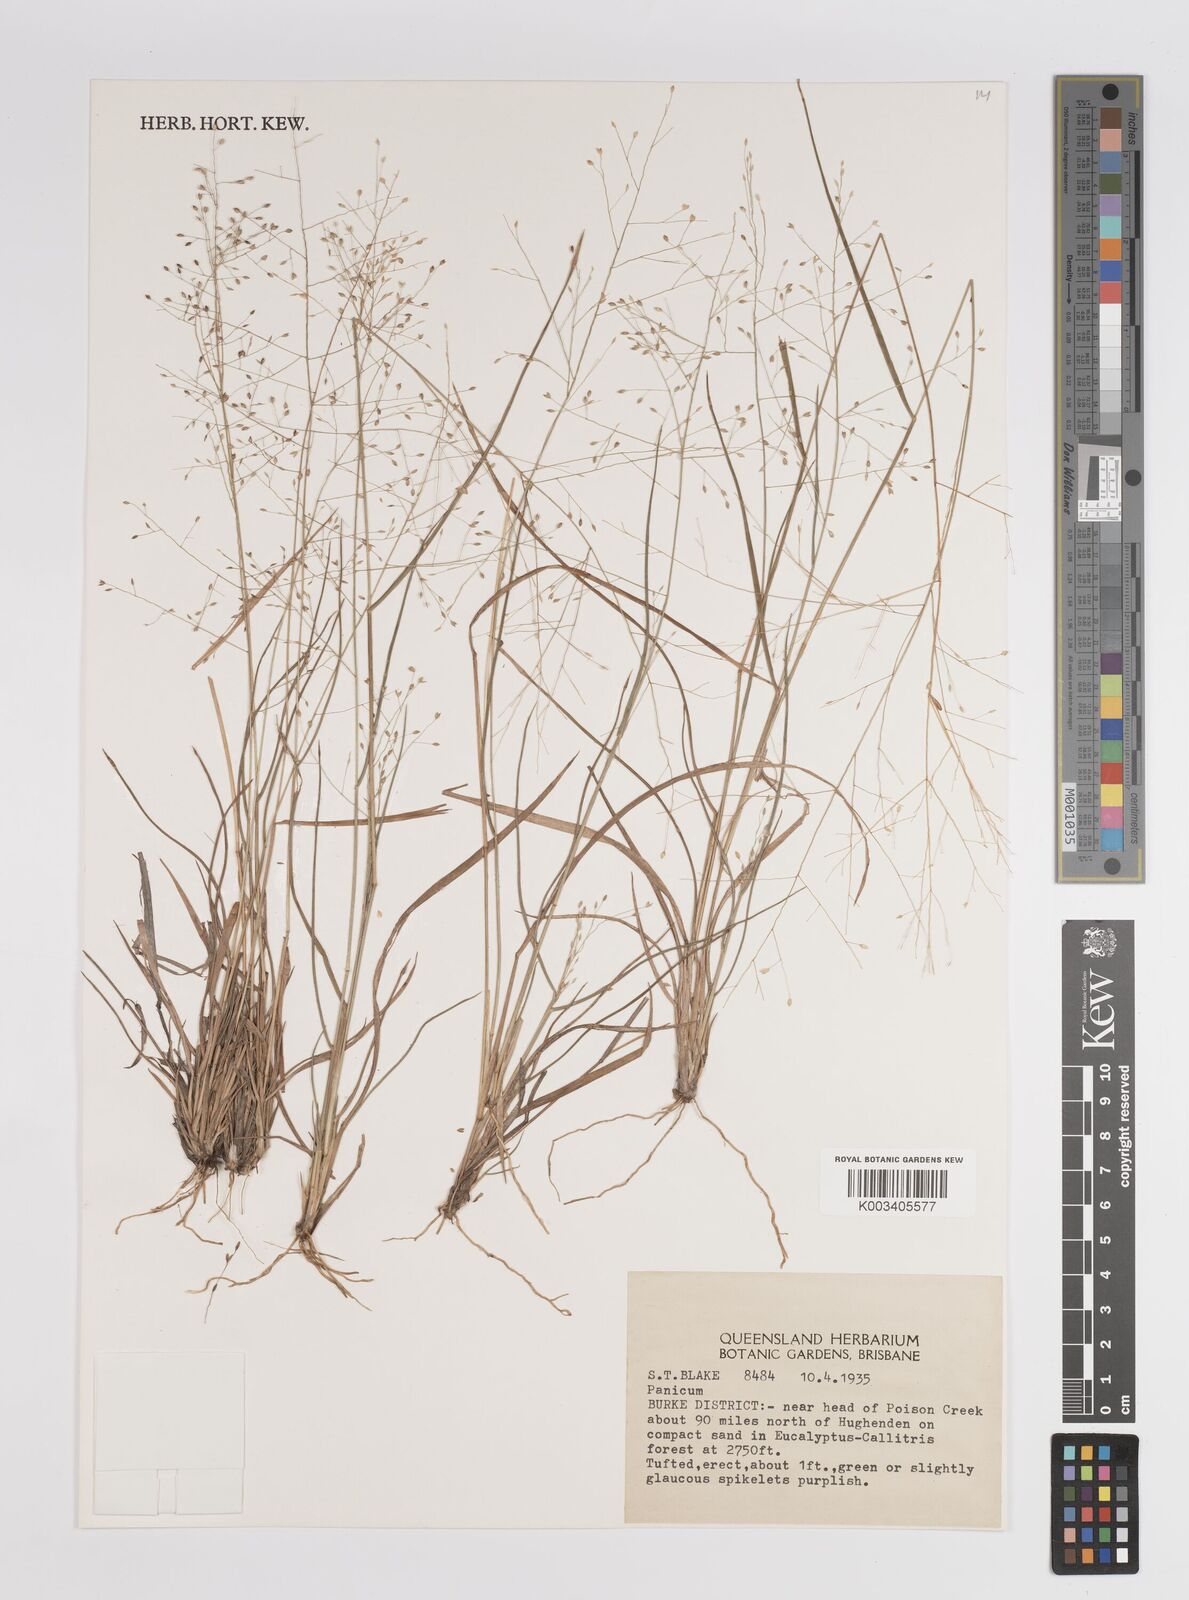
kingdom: Plantae
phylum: Tracheophyta
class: Liliopsida
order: Poales
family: Poaceae
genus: Panicum
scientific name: Panicum
